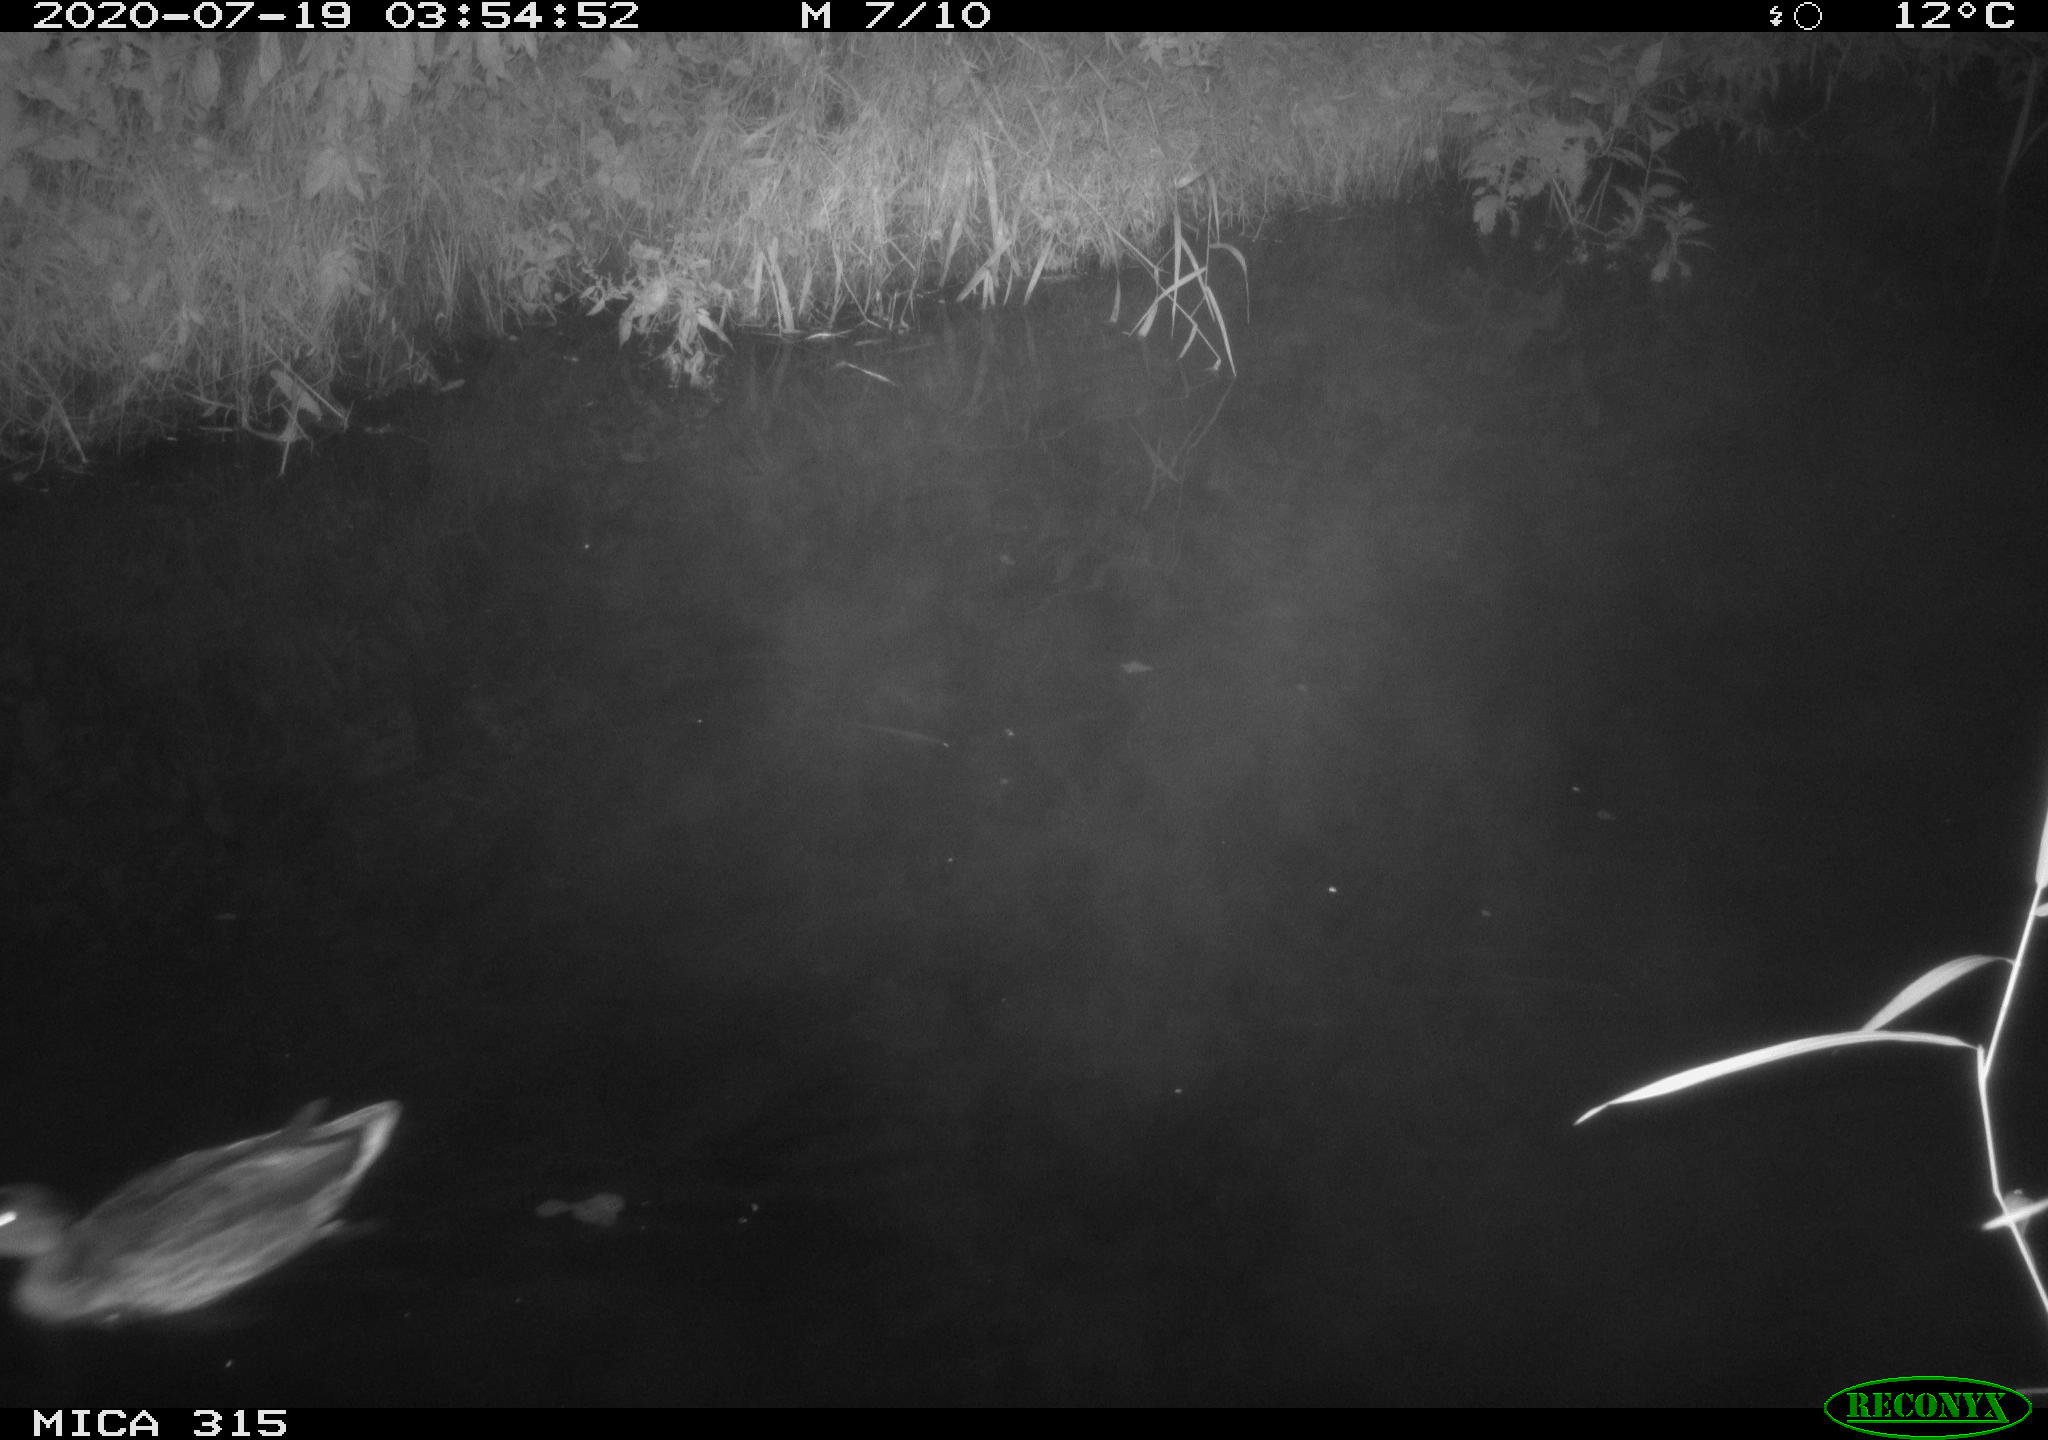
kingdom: Animalia
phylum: Chordata
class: Aves
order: Anseriformes
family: Anatidae
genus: Anas
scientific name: Anas platyrhynchos
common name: Mallard
